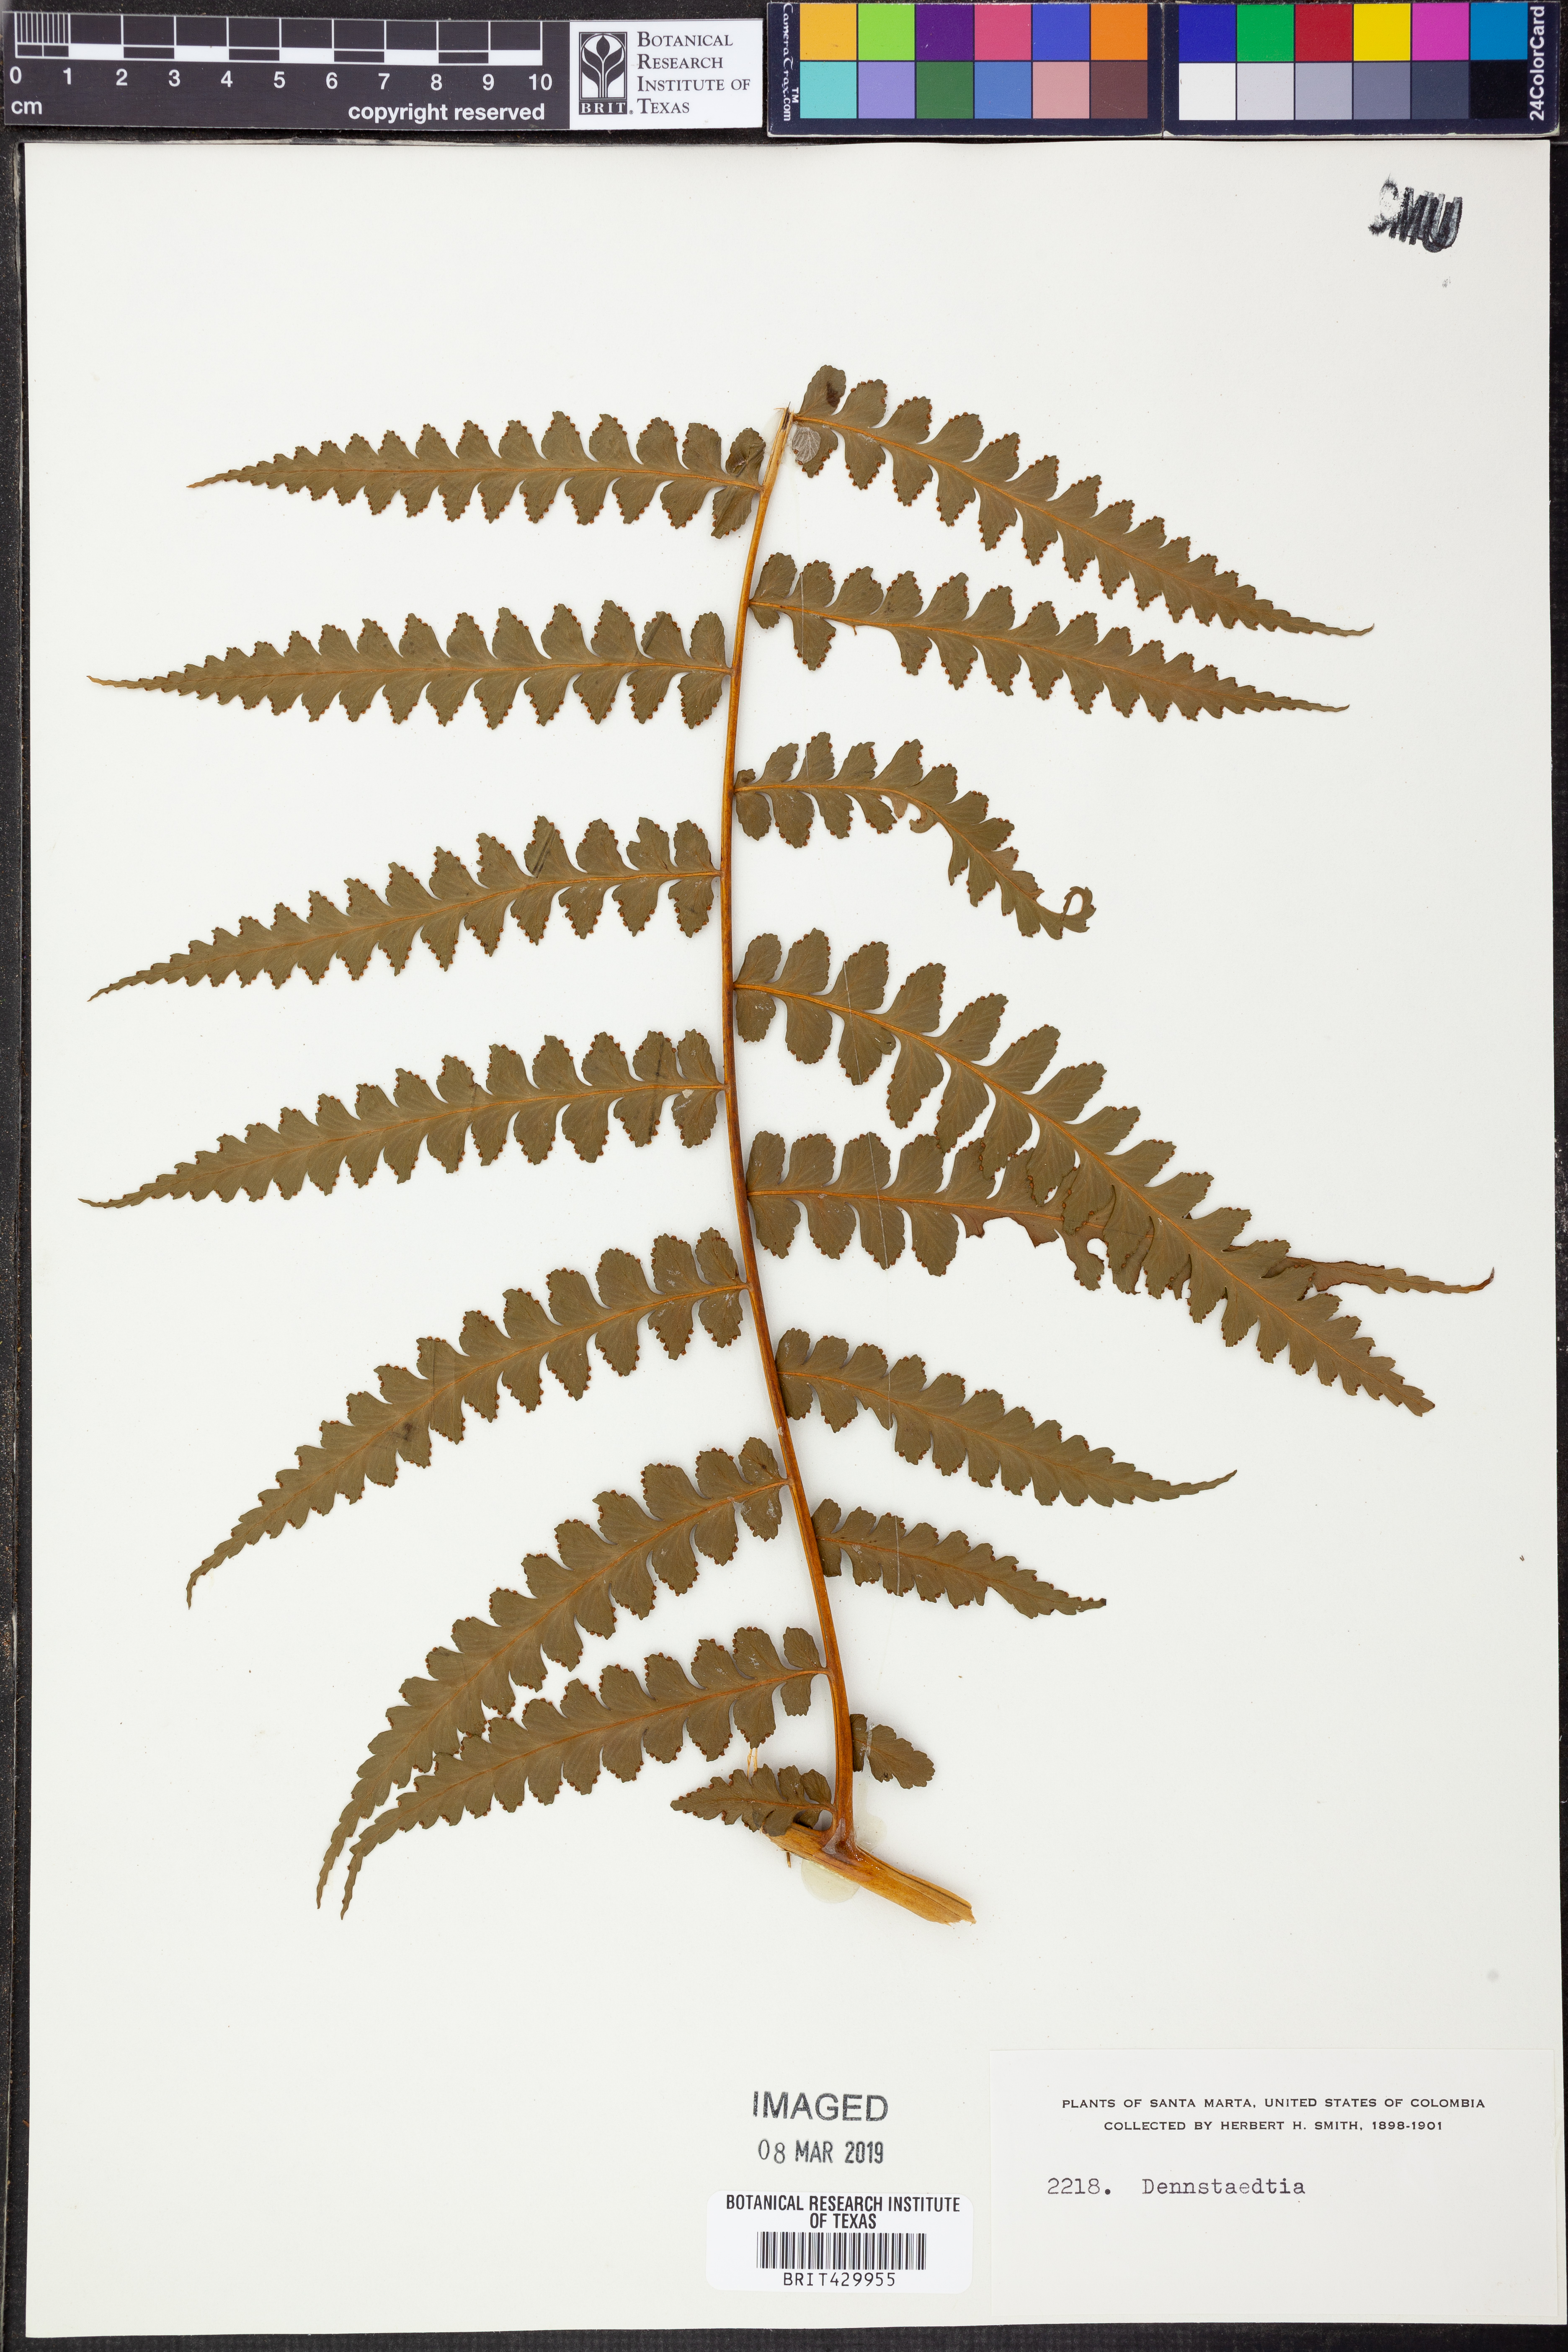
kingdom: Plantae
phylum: Tracheophyta
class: Polypodiopsida
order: Polypodiales
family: Dennstaedtiaceae
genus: Dennstaedtia
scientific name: Dennstaedtia
